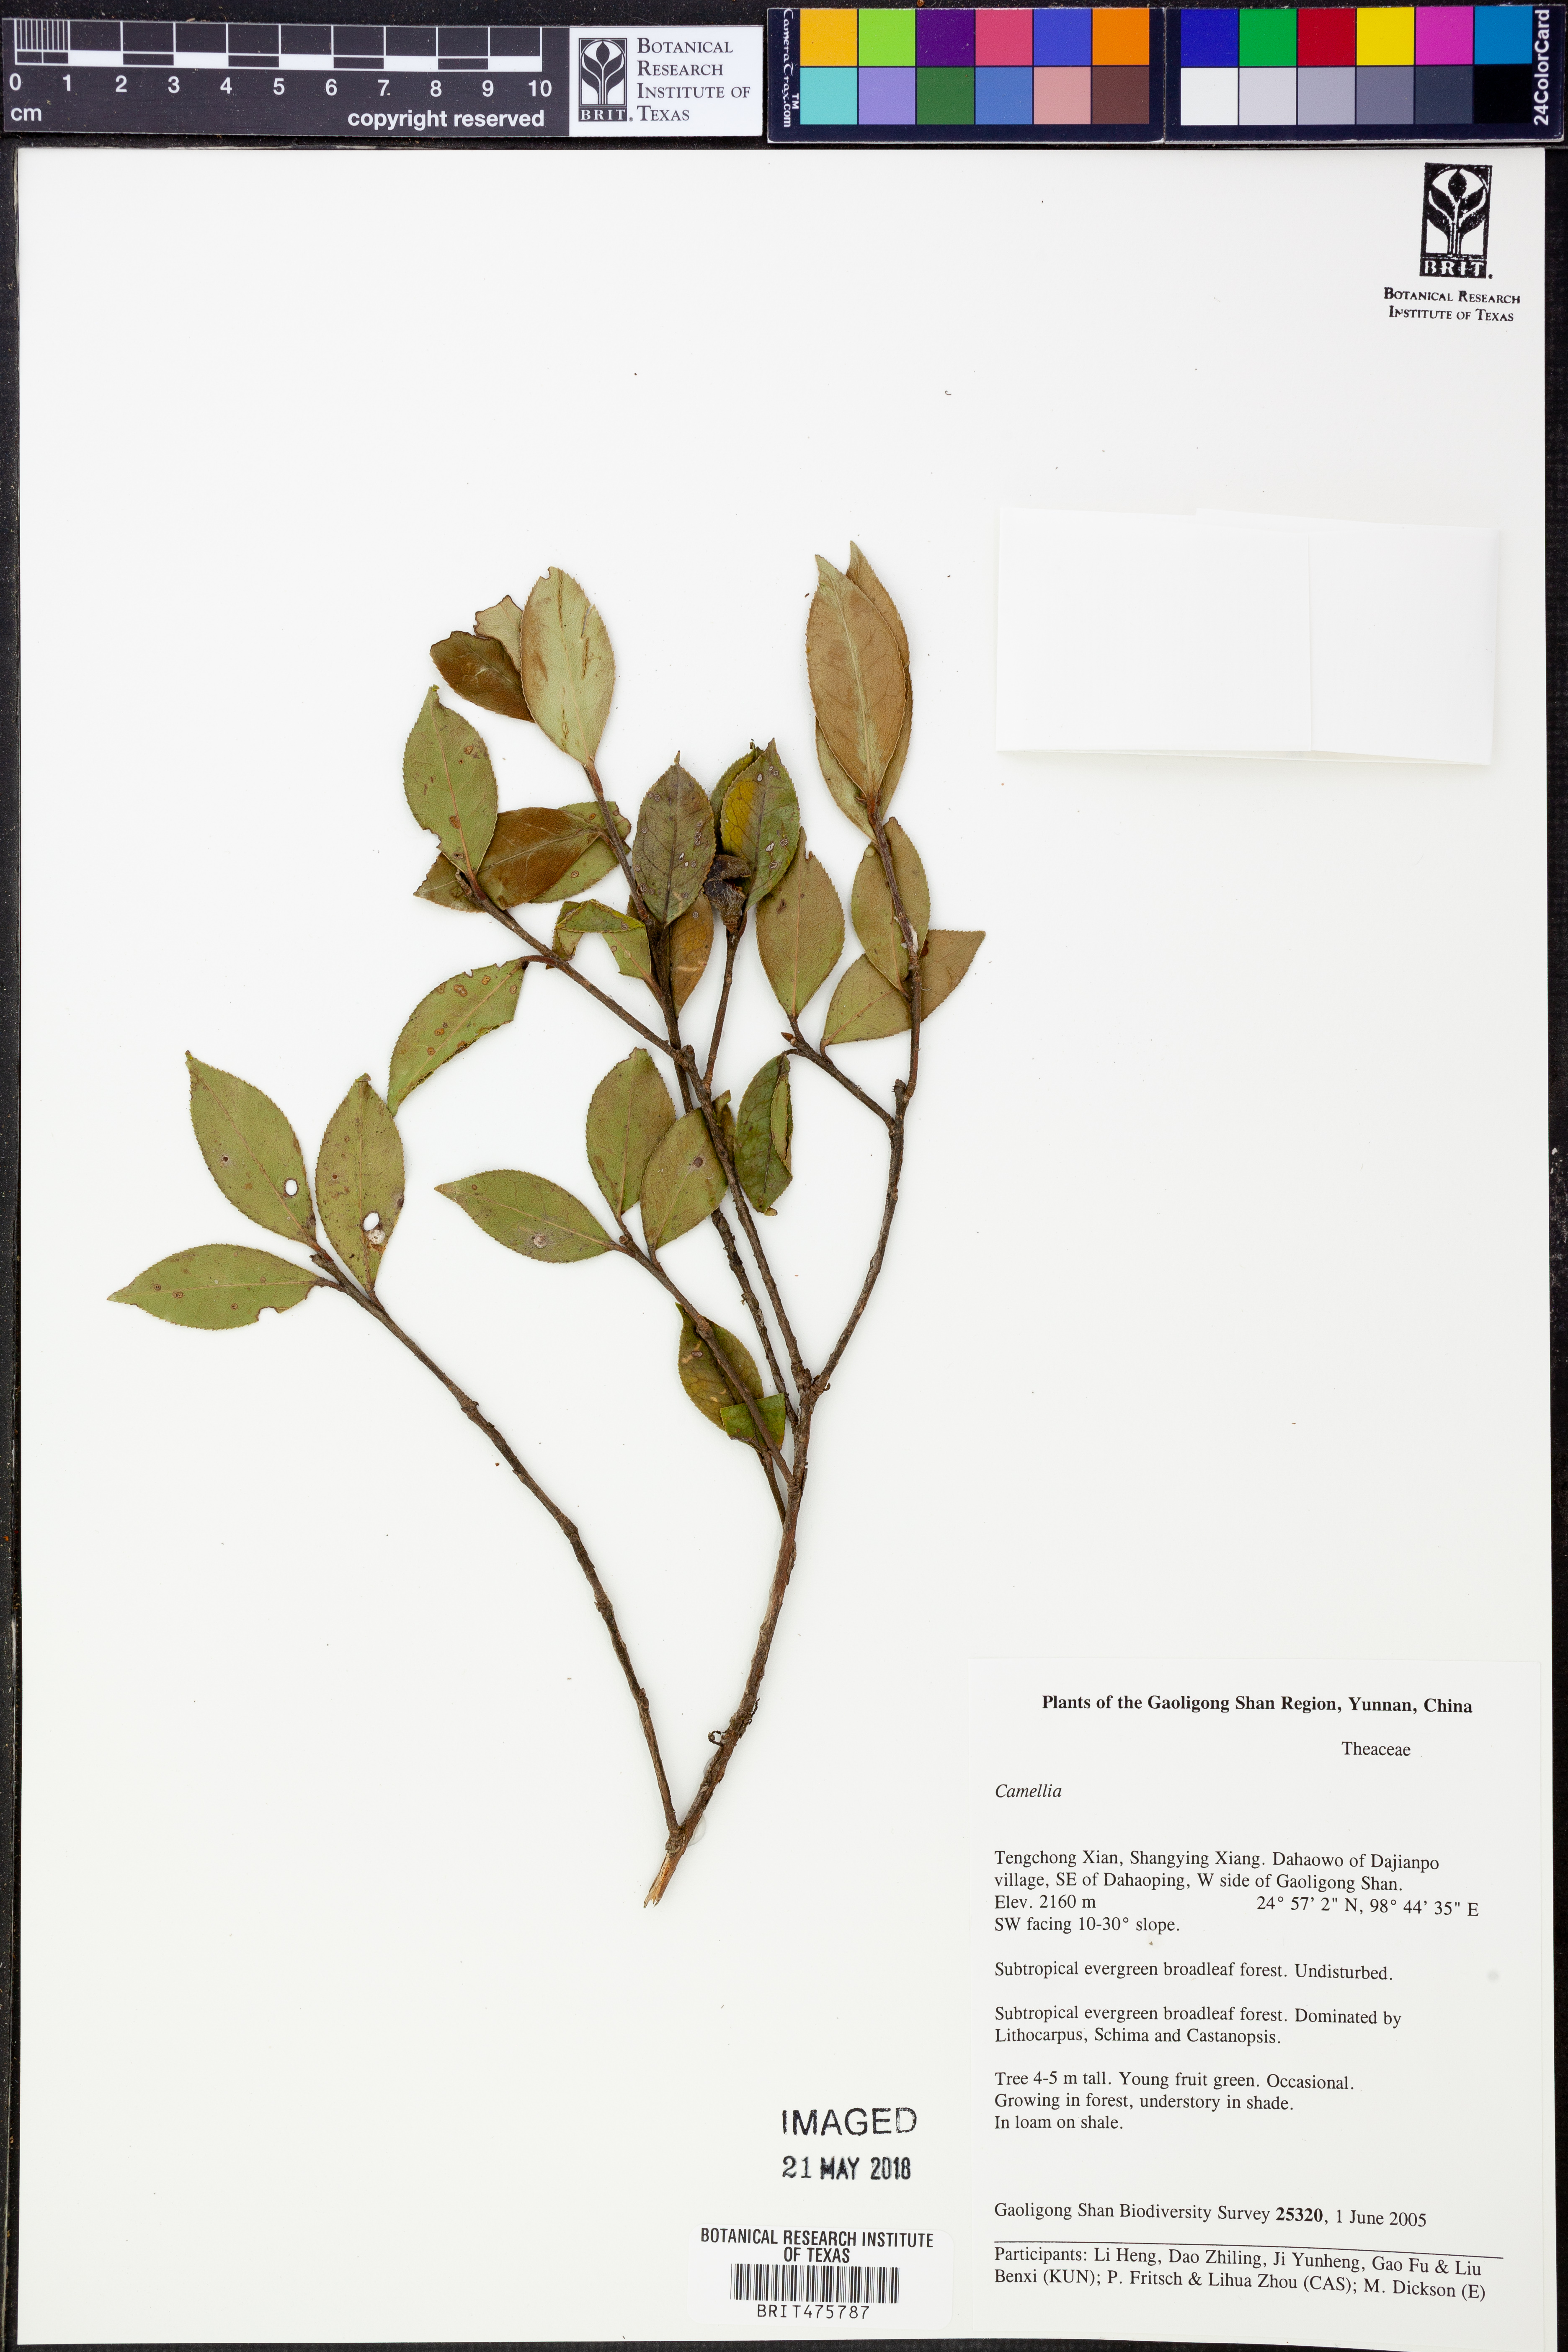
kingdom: Plantae
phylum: Tracheophyta
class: Magnoliopsida
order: Ericales
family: Theaceae
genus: Camellia
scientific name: Camellia
